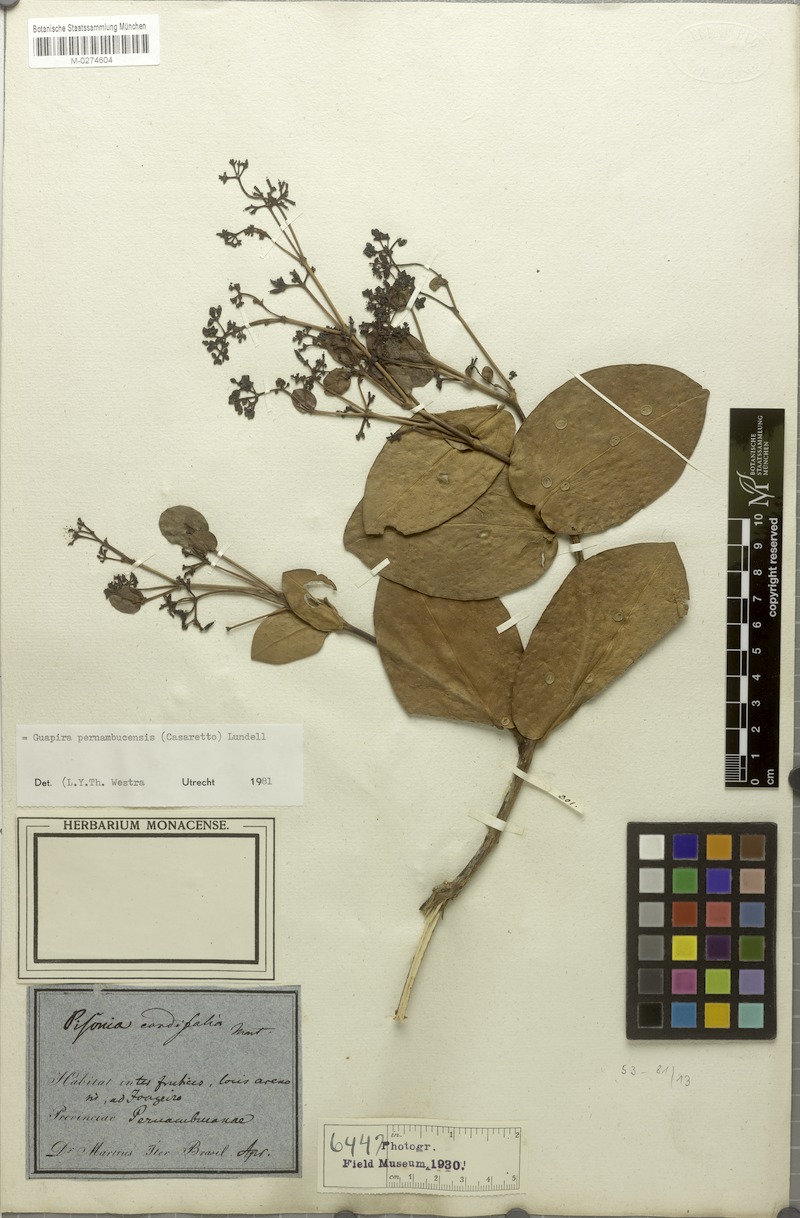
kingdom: Plantae
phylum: Tracheophyta
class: Magnoliopsida
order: Caryophyllales
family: Nyctaginaceae
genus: Guapira
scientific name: Guapira pernambucensis
